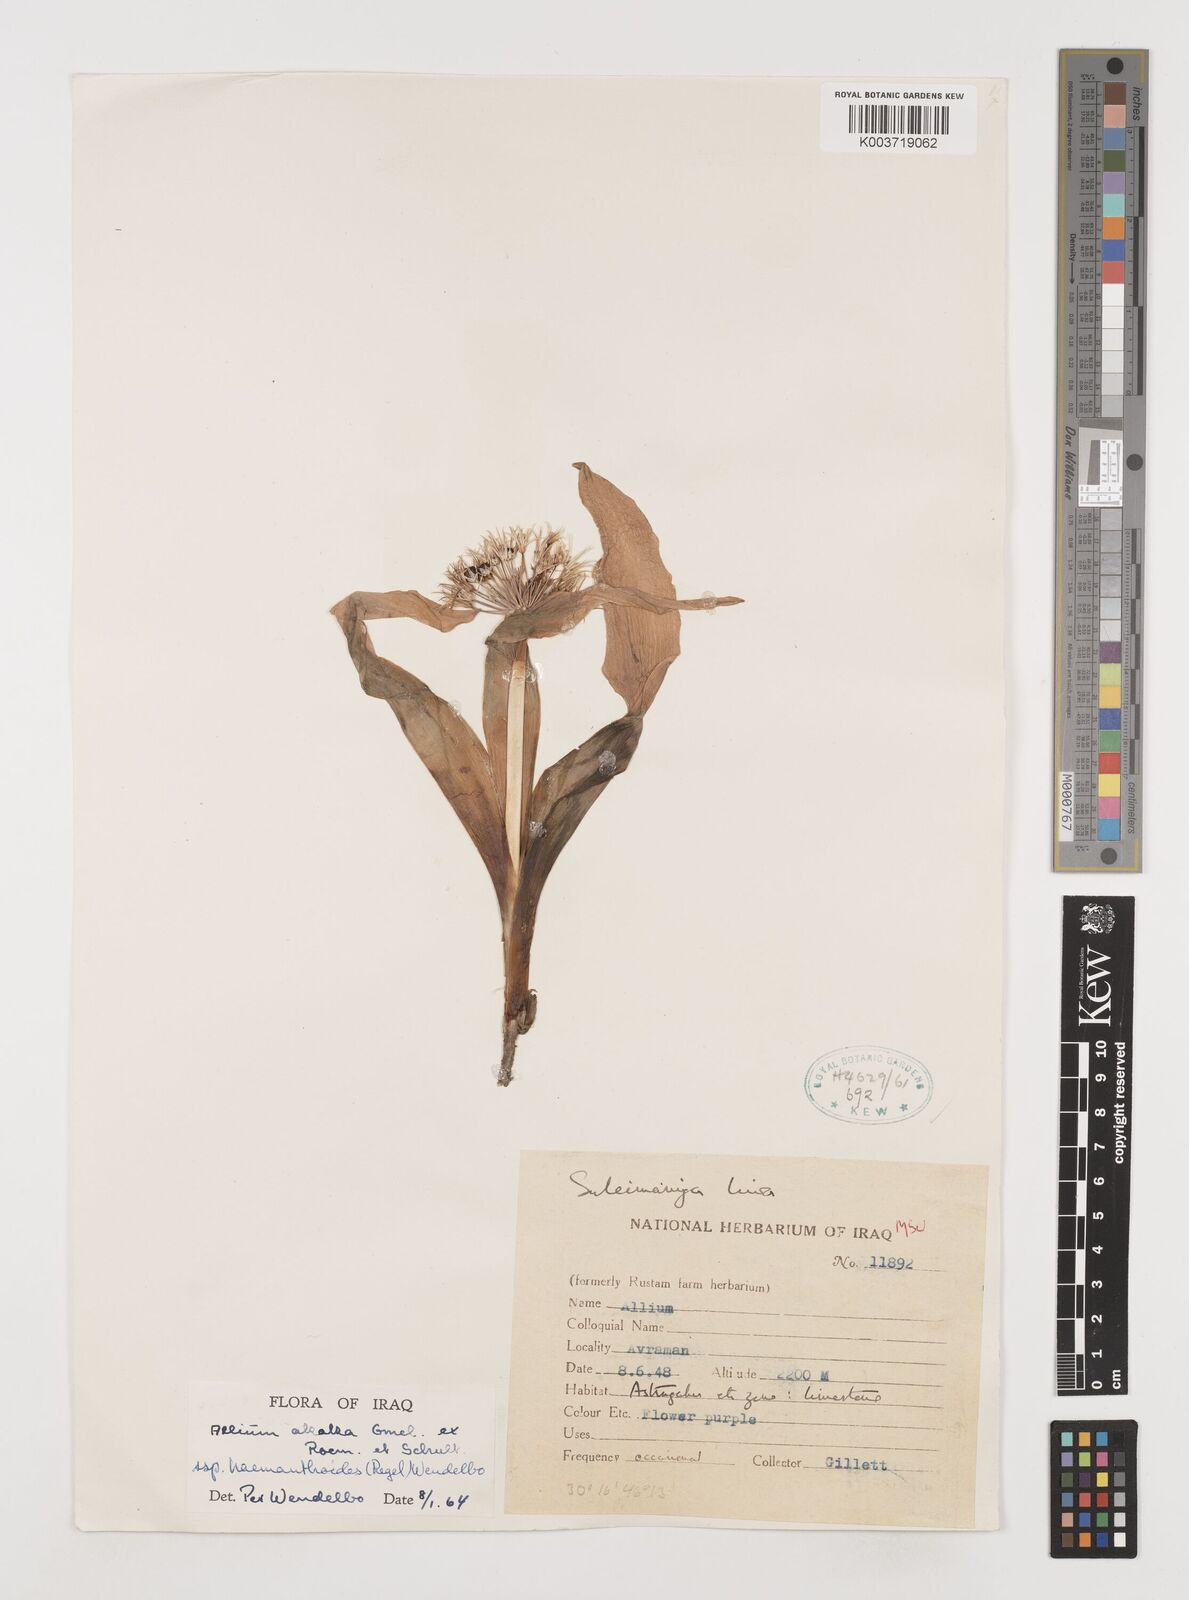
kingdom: Plantae
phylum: Tracheophyta
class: Liliopsida
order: Asparagales
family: Amaryllidaceae
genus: Allium
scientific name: Allium haemanthoides
